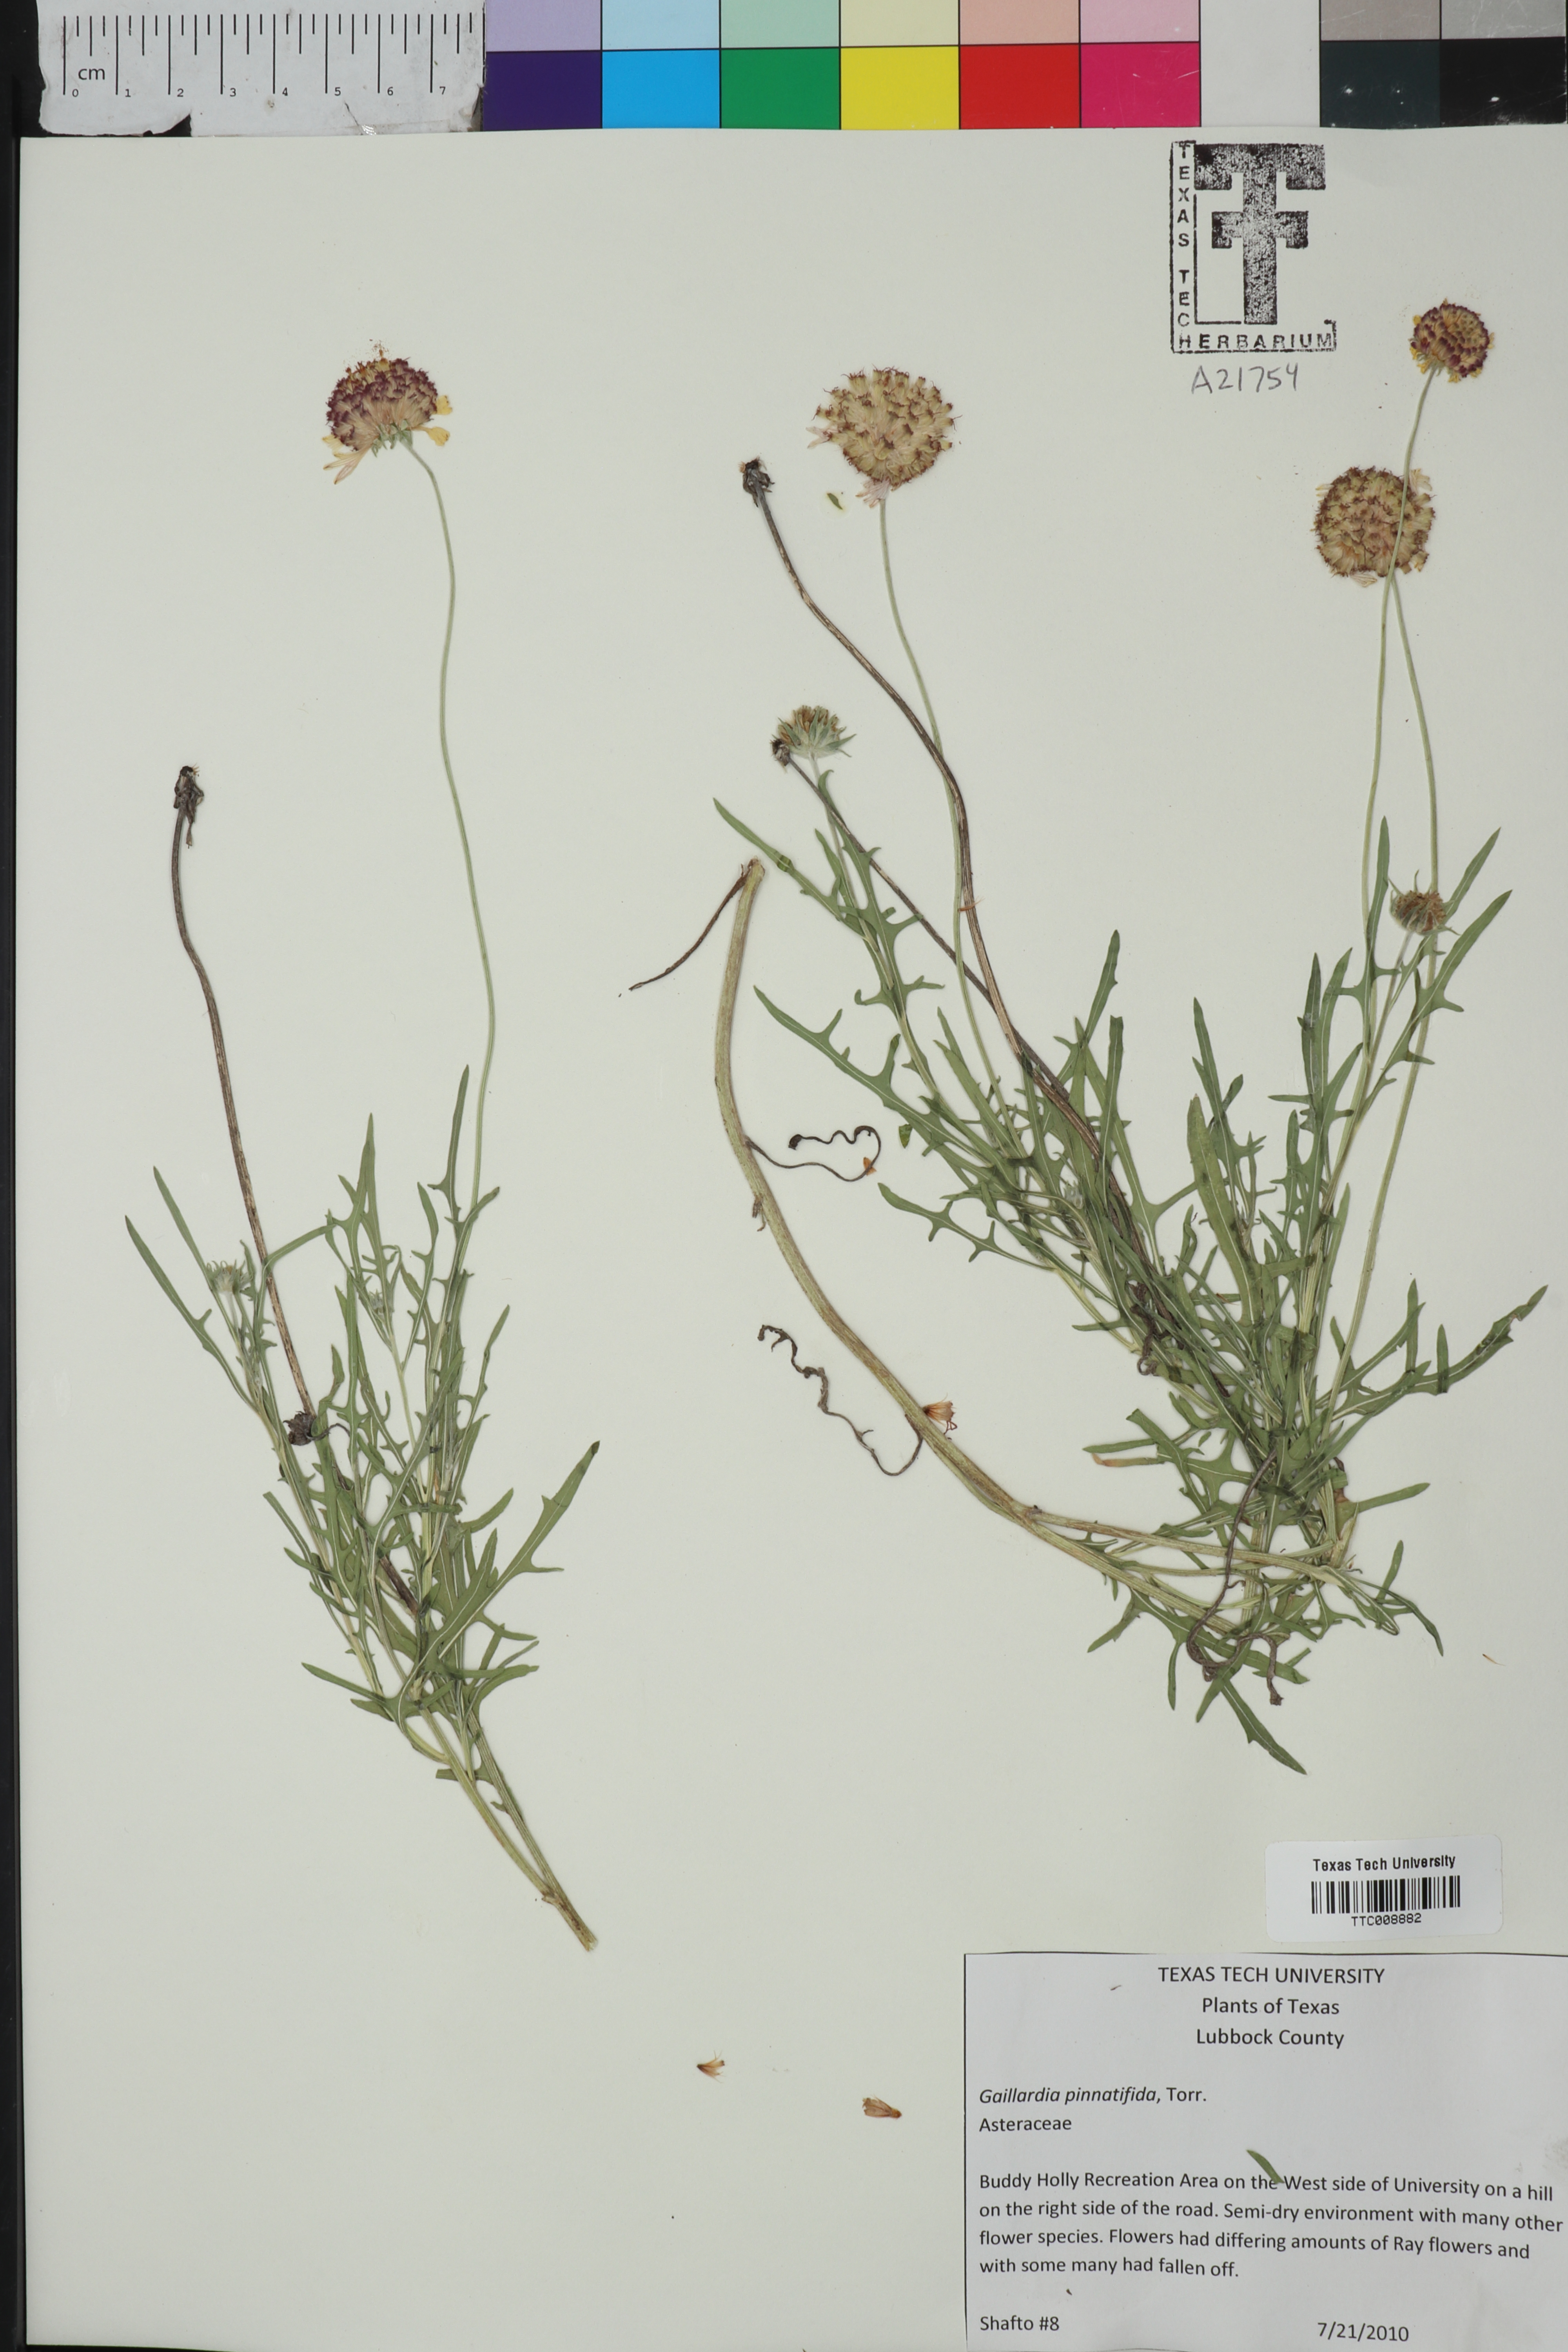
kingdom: Plantae
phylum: Tracheophyta
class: Magnoliopsida
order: Asterales
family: Asteraceae
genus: Gaillardia
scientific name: Gaillardia pinnatifida
